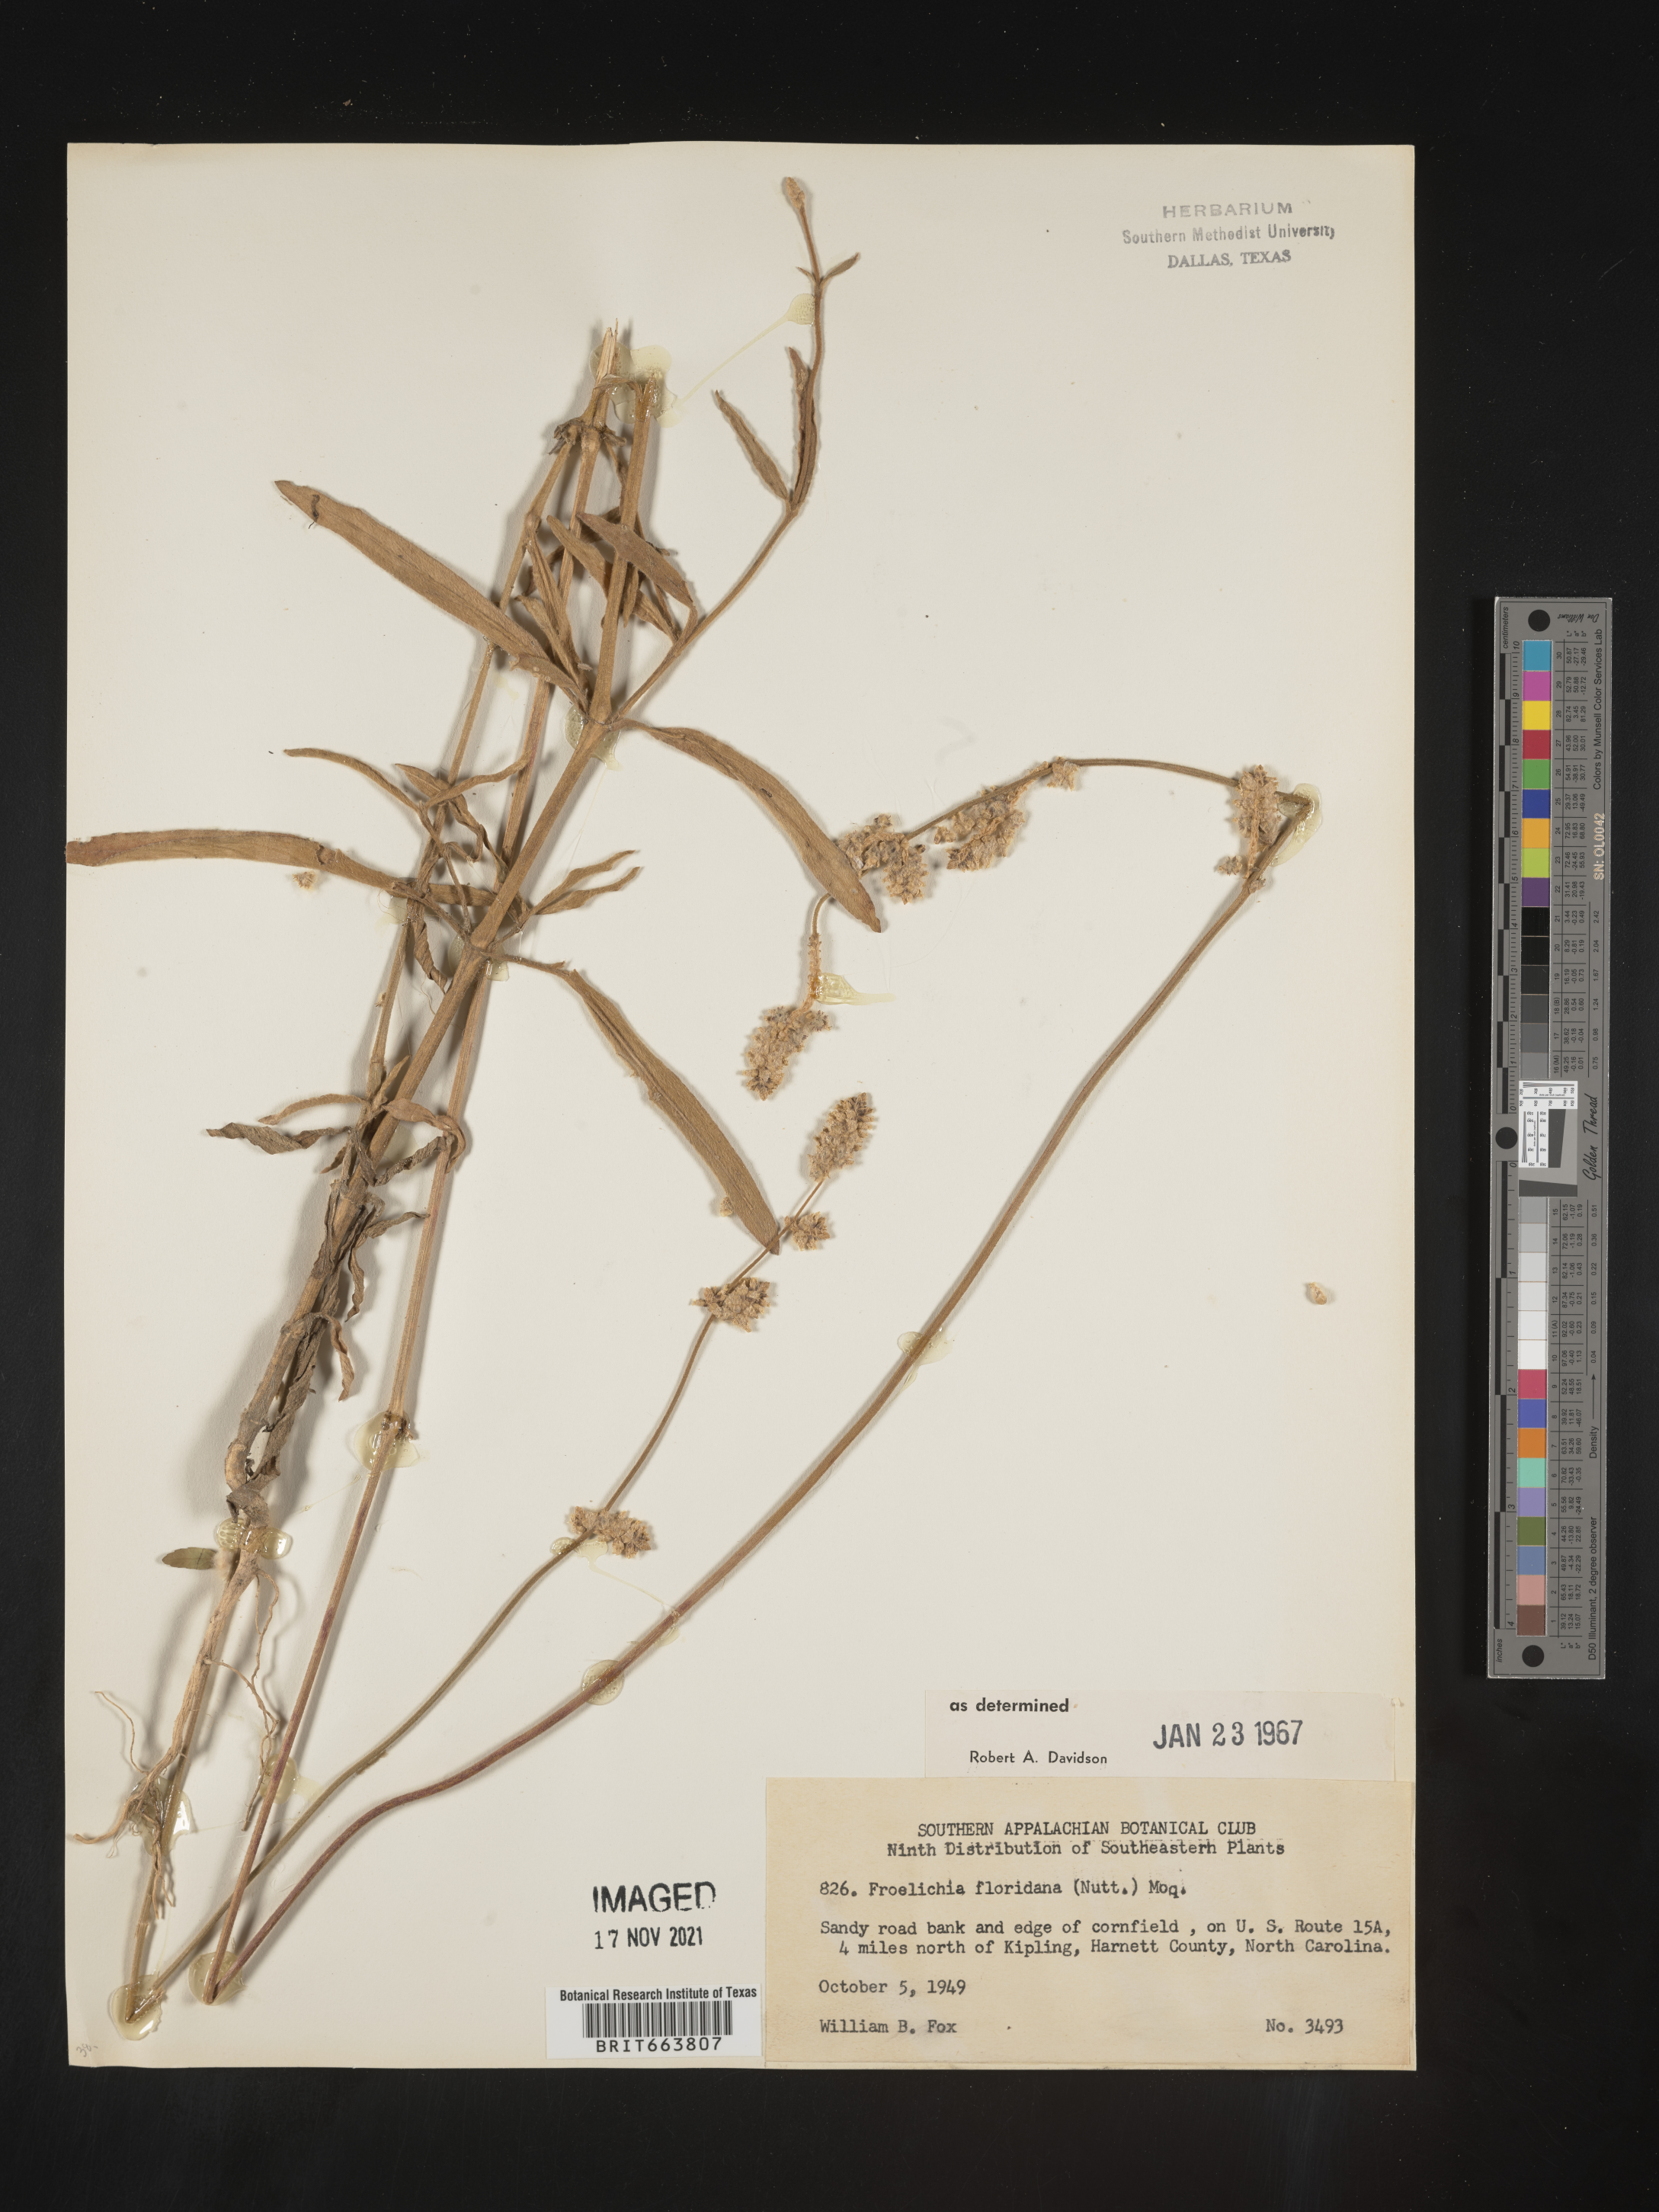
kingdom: Plantae
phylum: Tracheophyta
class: Magnoliopsida
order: Caryophyllales
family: Amaranthaceae
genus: Froelichia
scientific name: Froelichia floridana
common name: Florida snake-cotton
